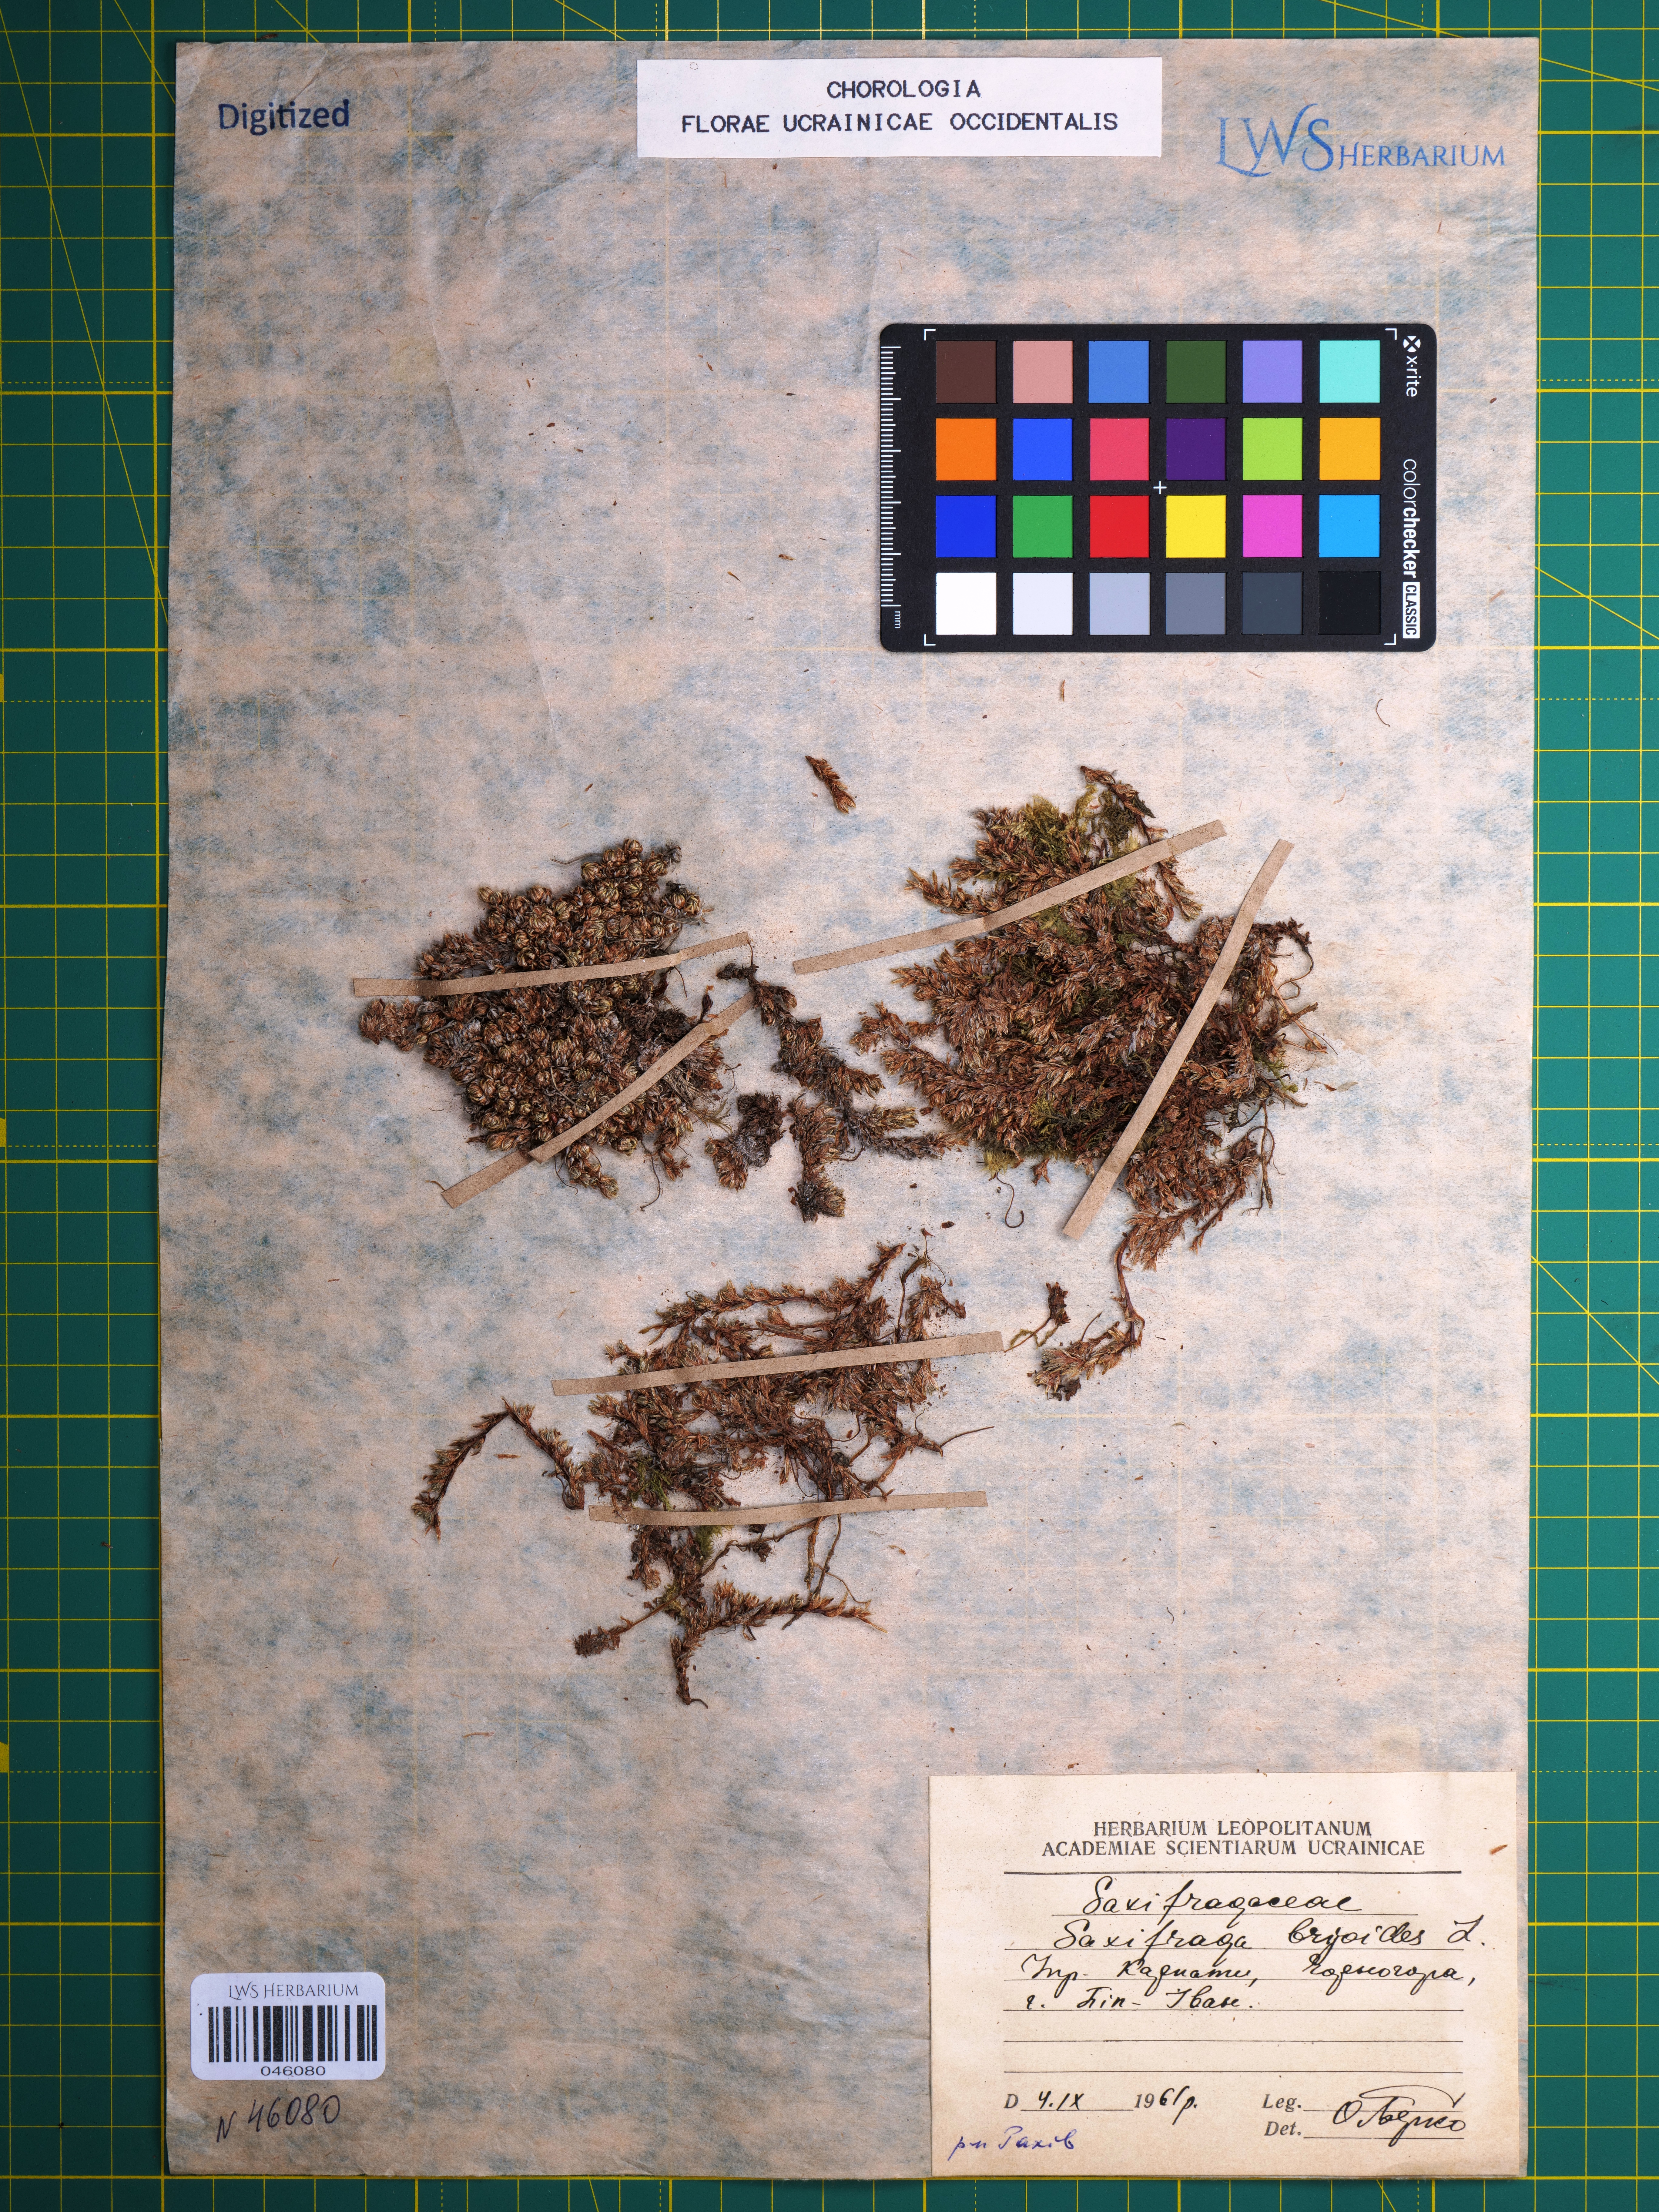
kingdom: Plantae
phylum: Tracheophyta
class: Magnoliopsida
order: Saxifragales
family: Saxifragaceae
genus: Saxifraga
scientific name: Saxifraga bryoides
